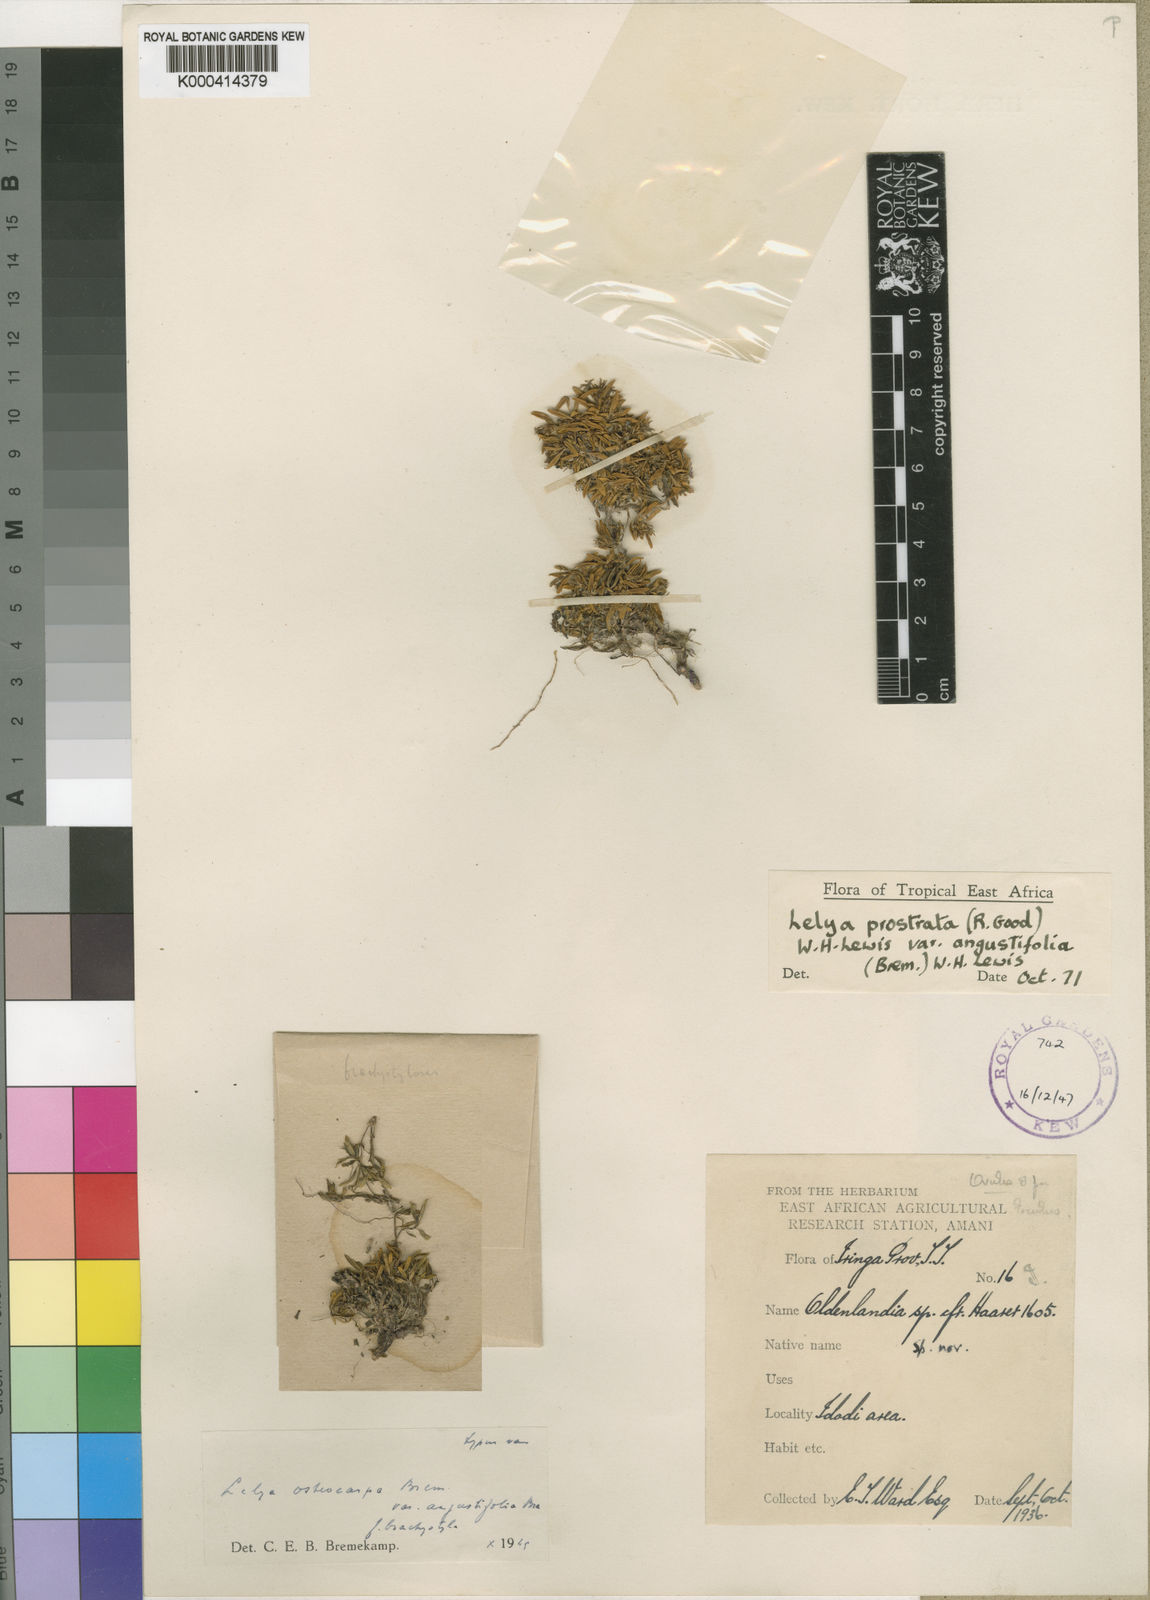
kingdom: Plantae
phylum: Tracheophyta
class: Magnoliopsida
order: Gentianales
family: Rubiaceae
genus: Lelya
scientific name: Lelya osteocarpa
